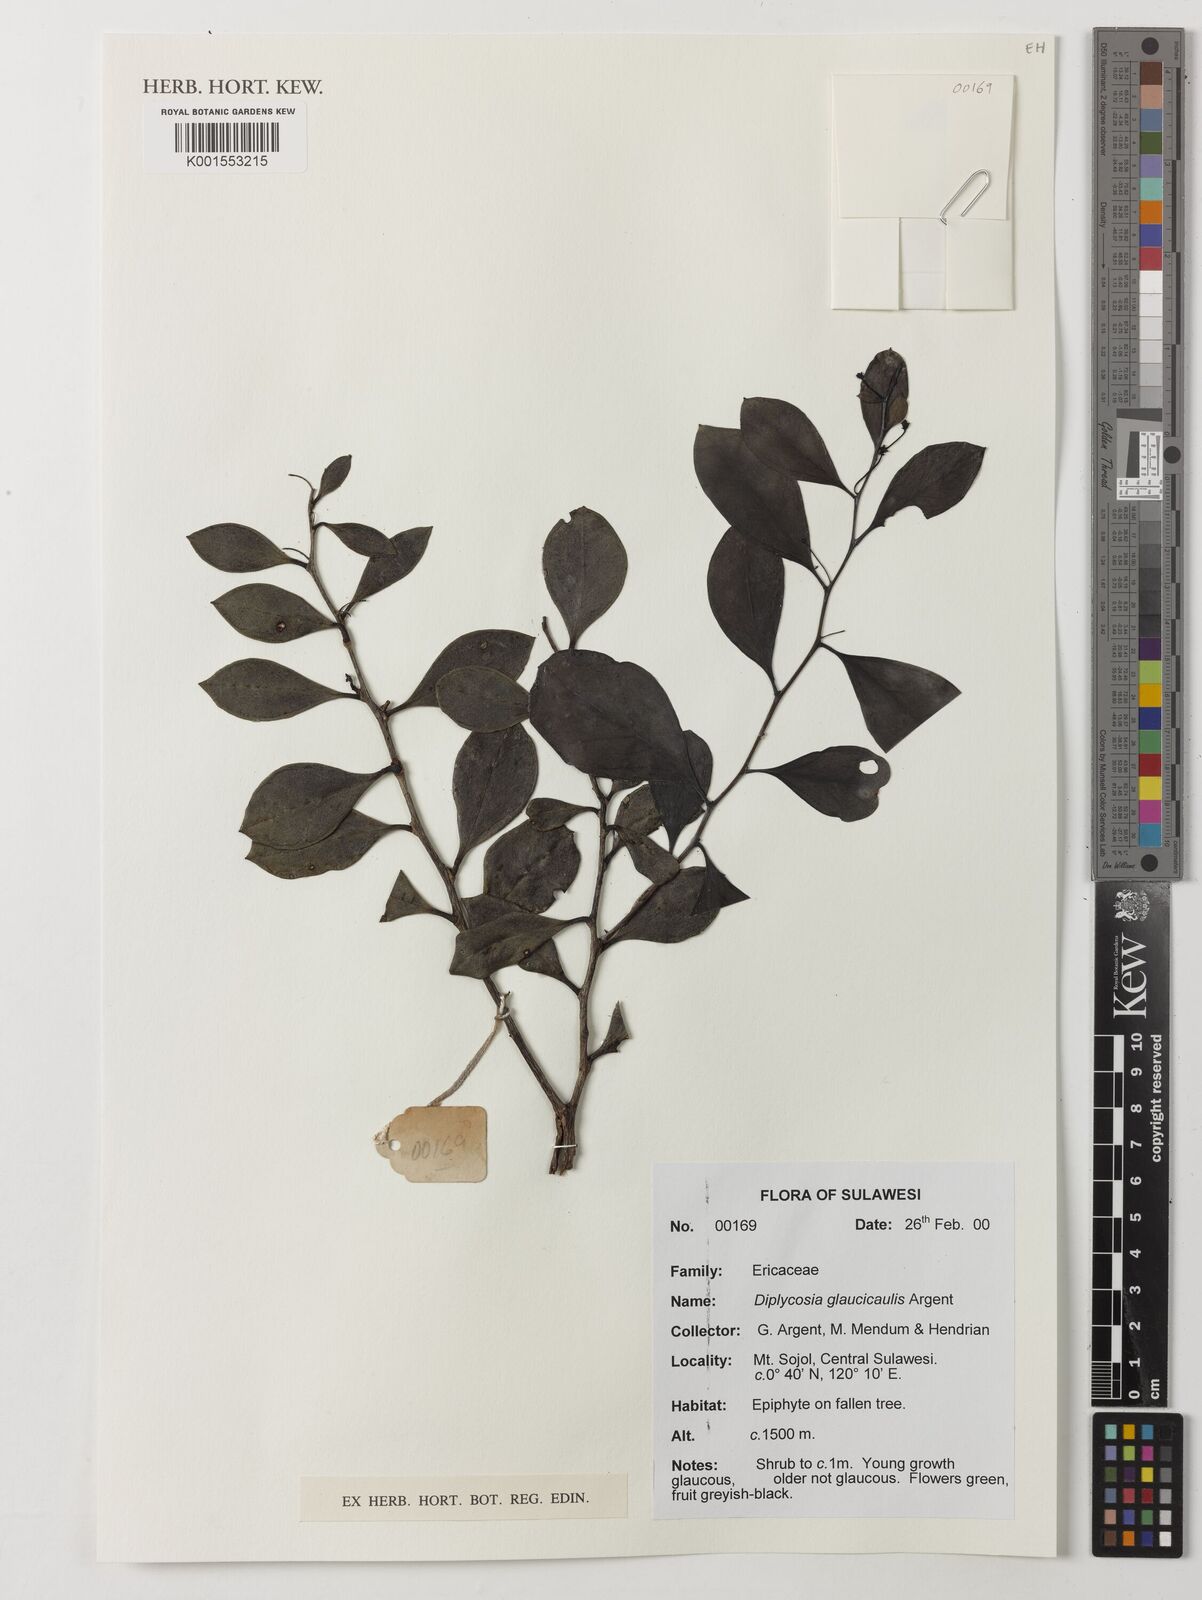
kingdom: Plantae
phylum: Tracheophyta
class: Magnoliopsida
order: Ericales
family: Ericaceae
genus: Gaultheria
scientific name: Gaultheria glaucicaulis
